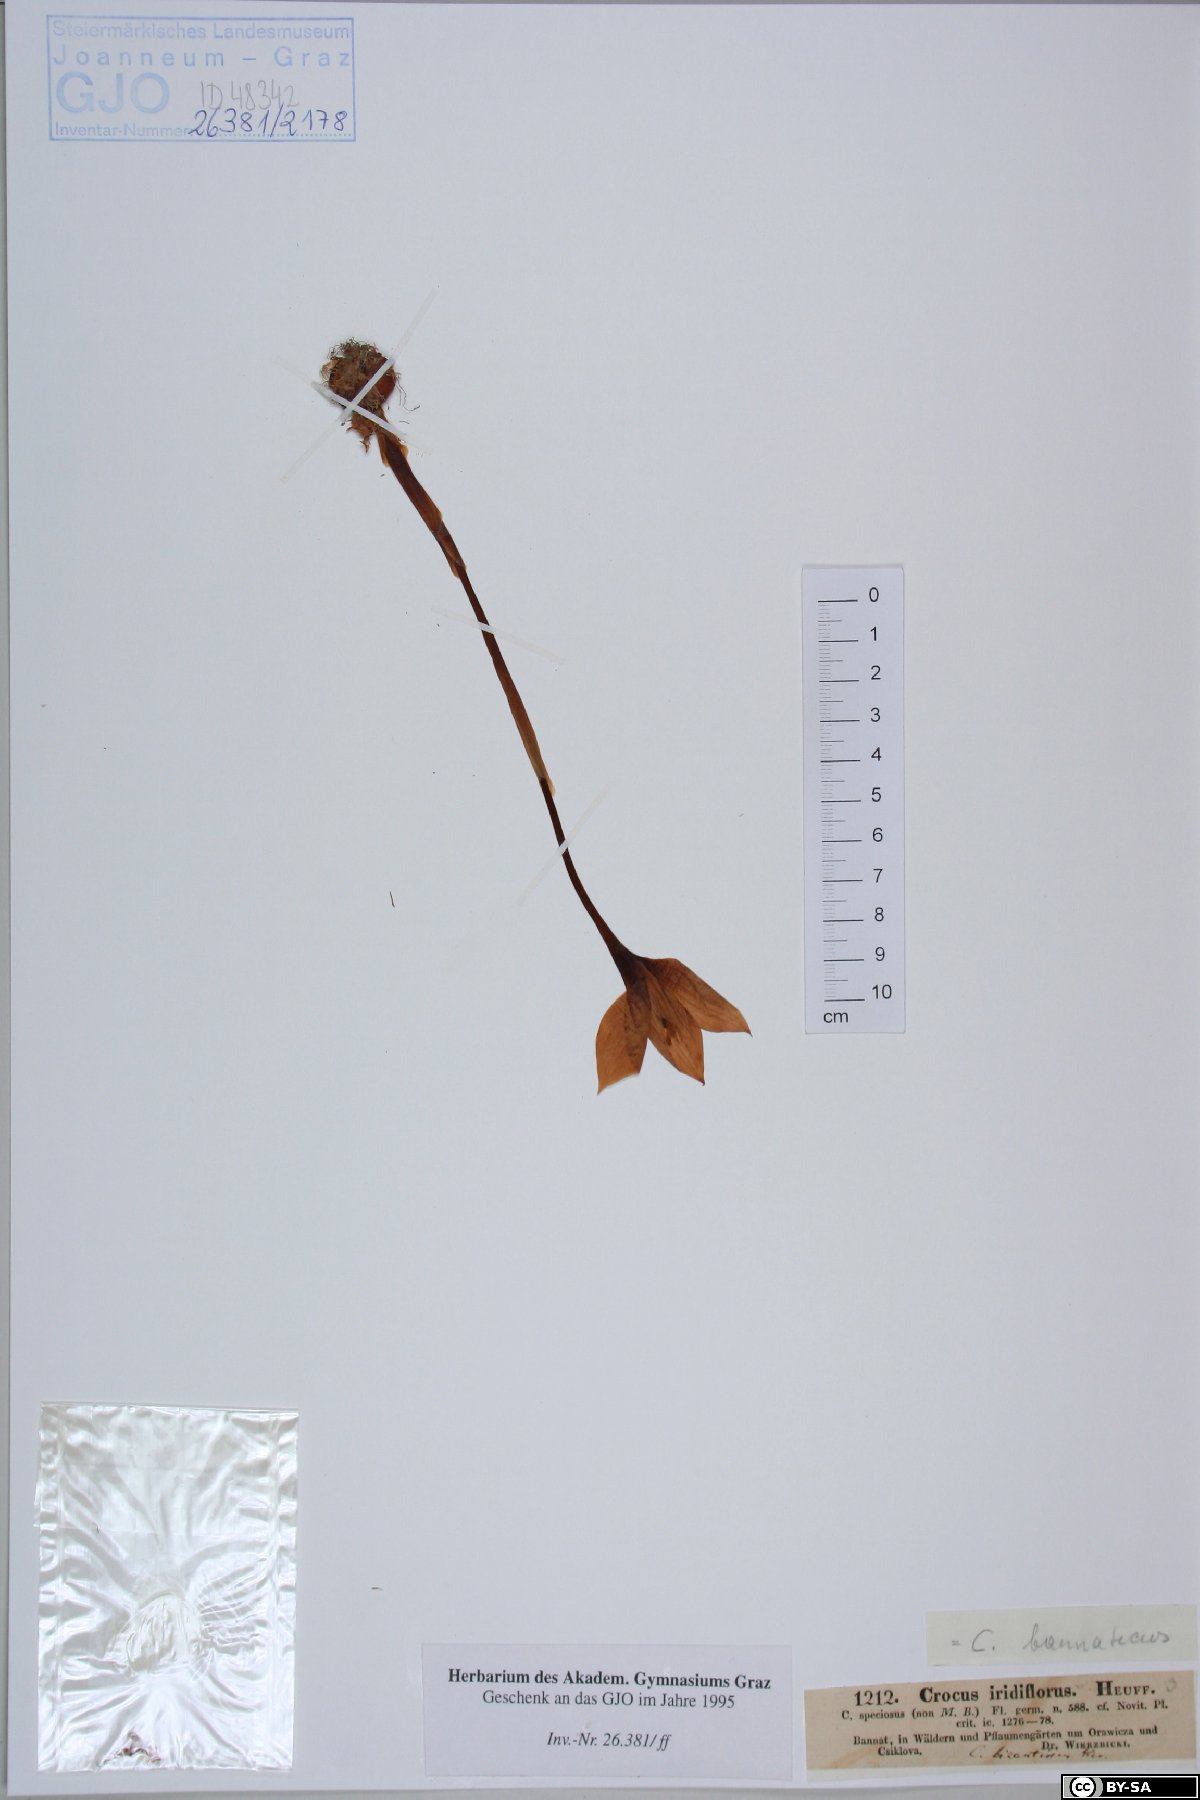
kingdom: Plantae
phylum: Tracheophyta
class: Liliopsida
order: Asparagales
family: Iridaceae
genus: Crocus
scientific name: Crocus banaticus
